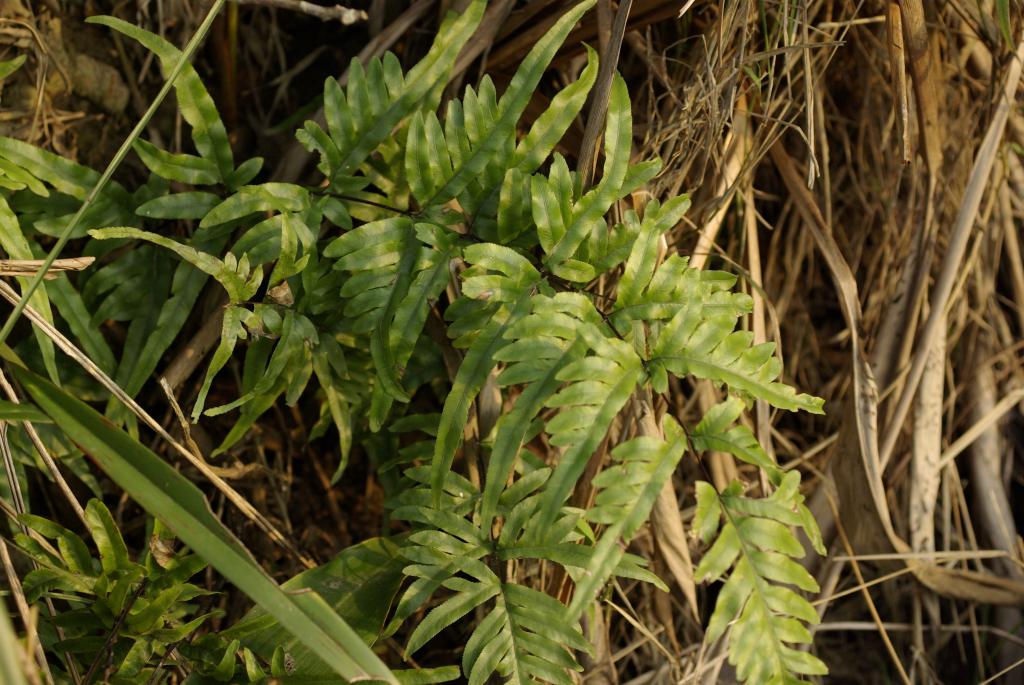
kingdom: Plantae
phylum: Tracheophyta
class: Polypodiopsida
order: Polypodiales
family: Pteridaceae
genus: Pteris
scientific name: Pteris semipinnata
